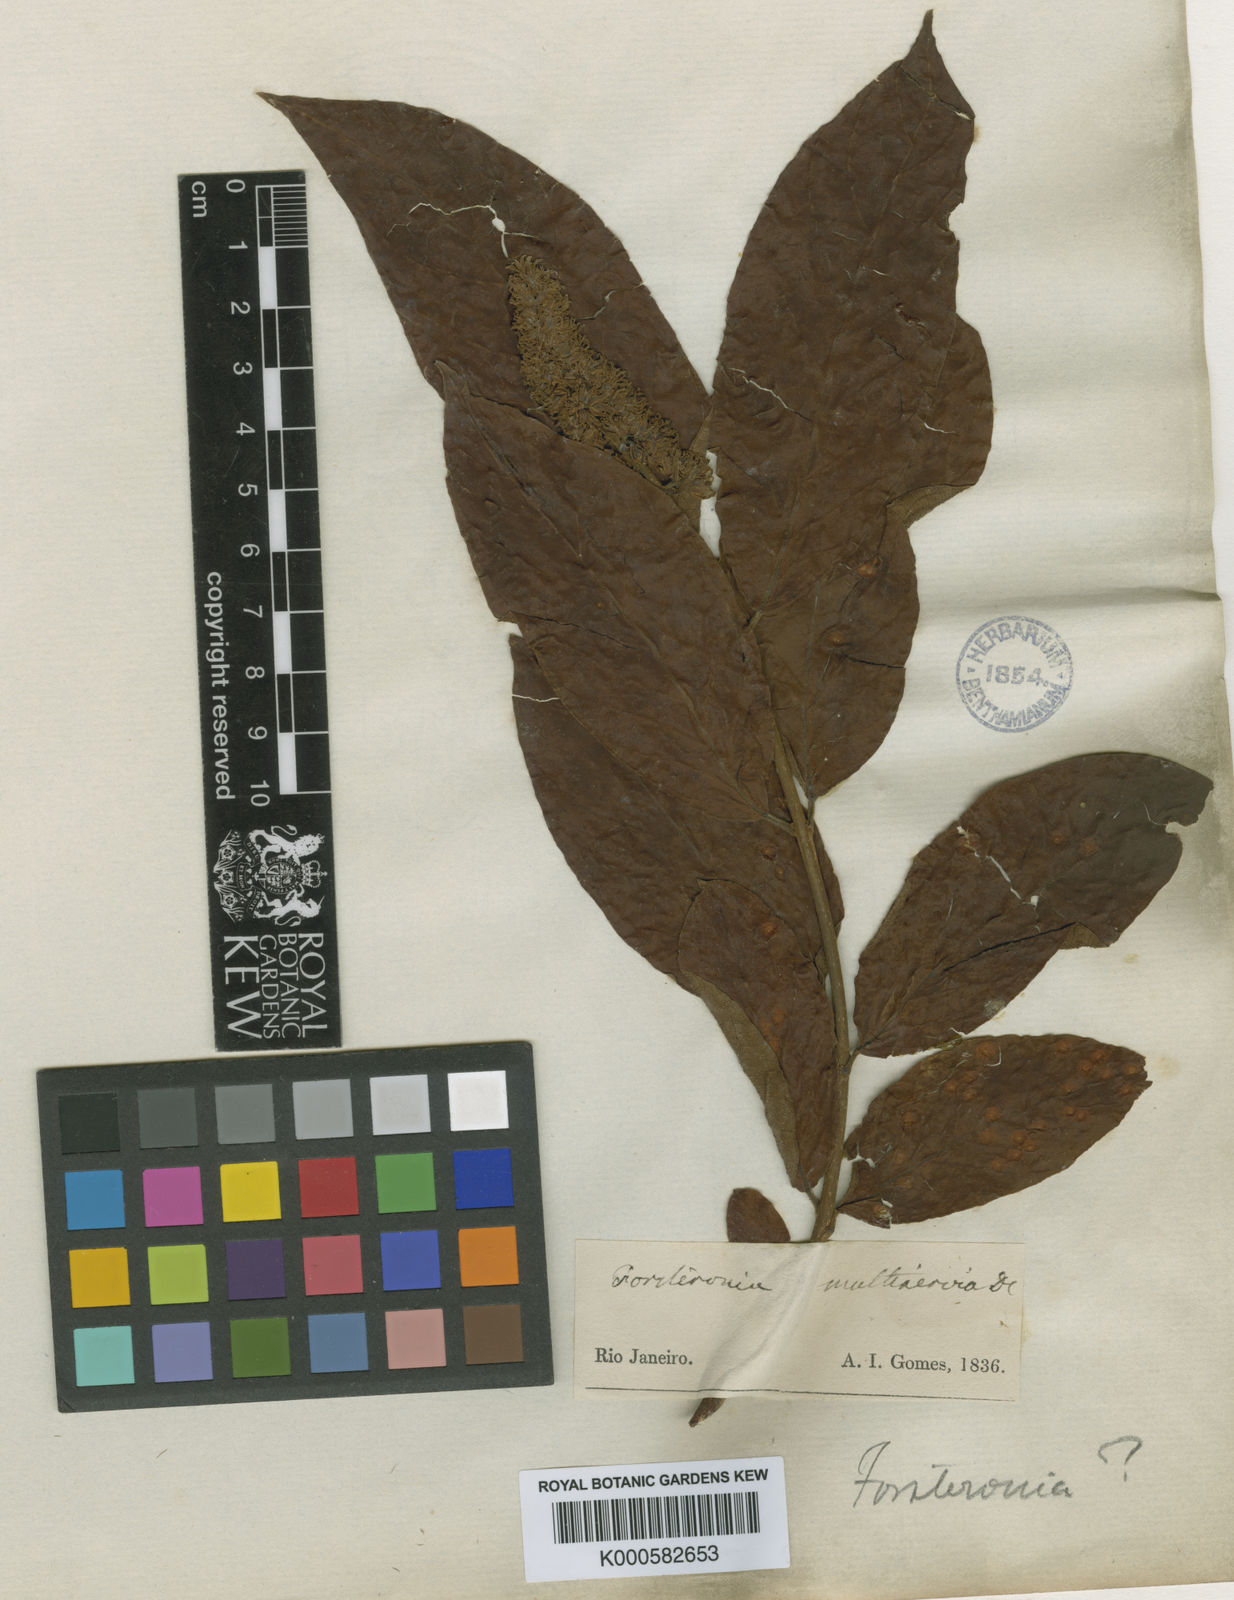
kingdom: Plantae
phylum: Tracheophyta
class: Magnoliopsida
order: Gentianales
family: Apocynaceae
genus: Forsteronia
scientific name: Forsteronia
